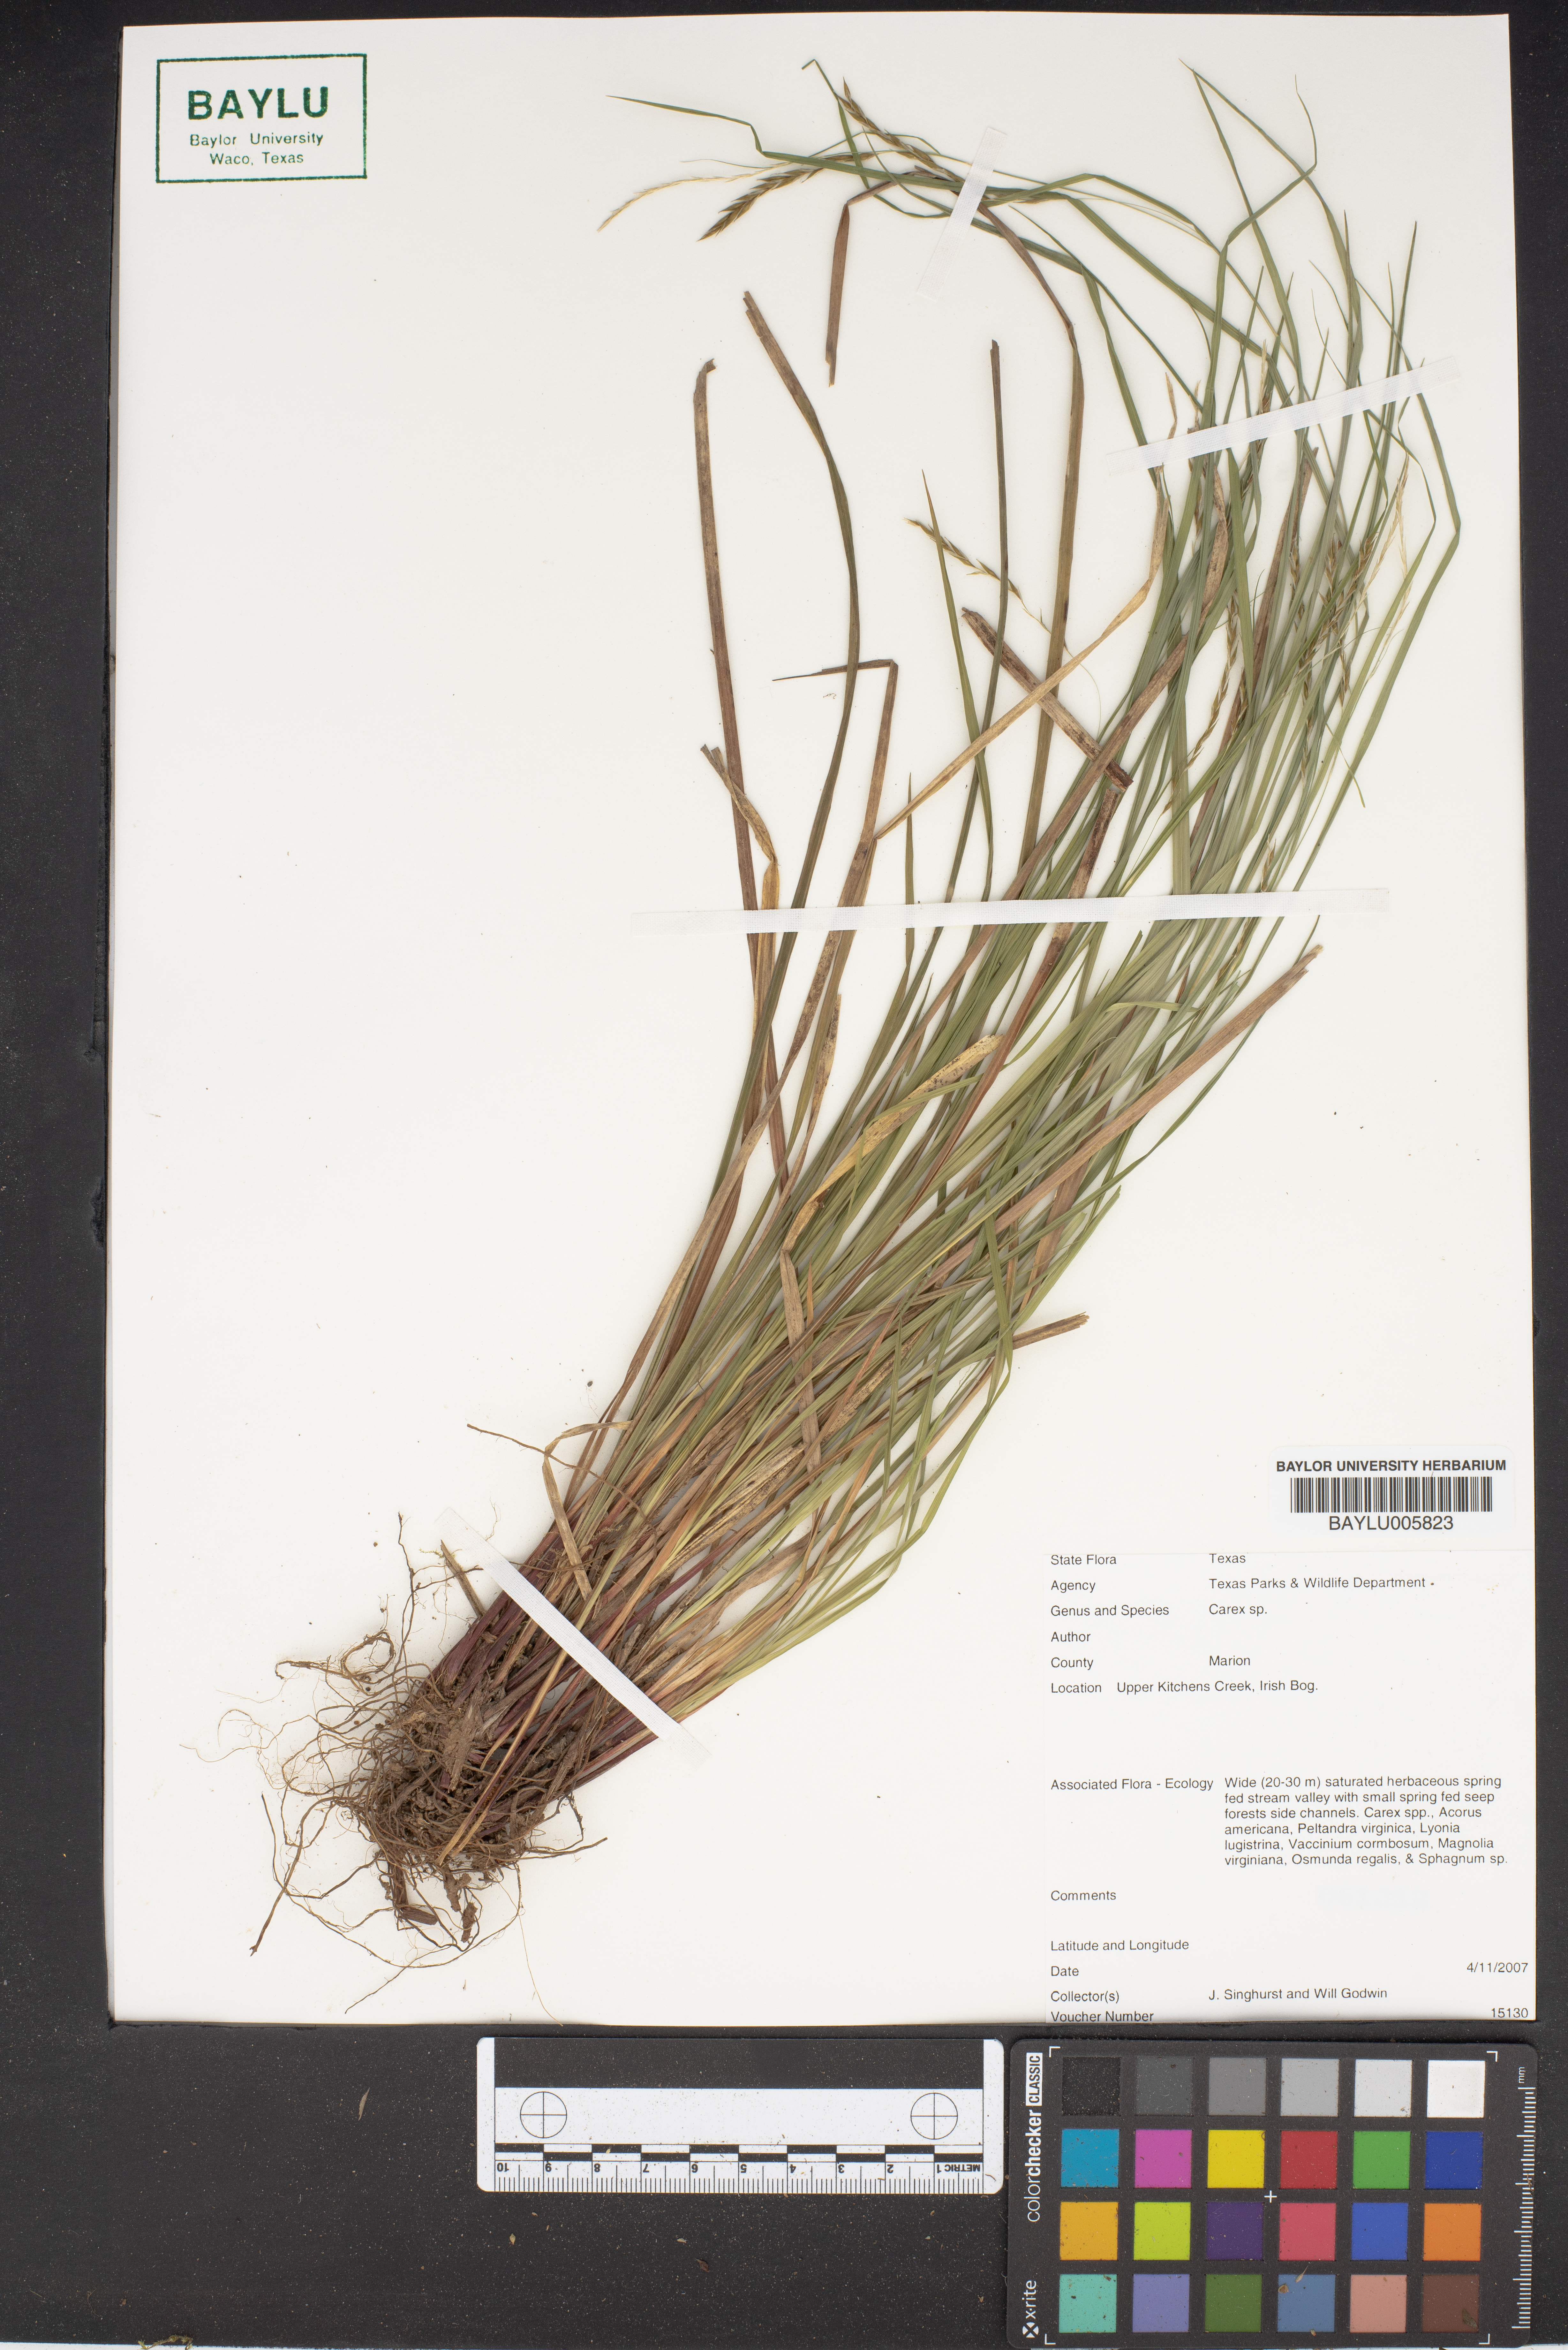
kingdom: Plantae
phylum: Tracheophyta
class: Liliopsida
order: Poales
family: Cyperaceae
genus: Carex
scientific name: Carex
